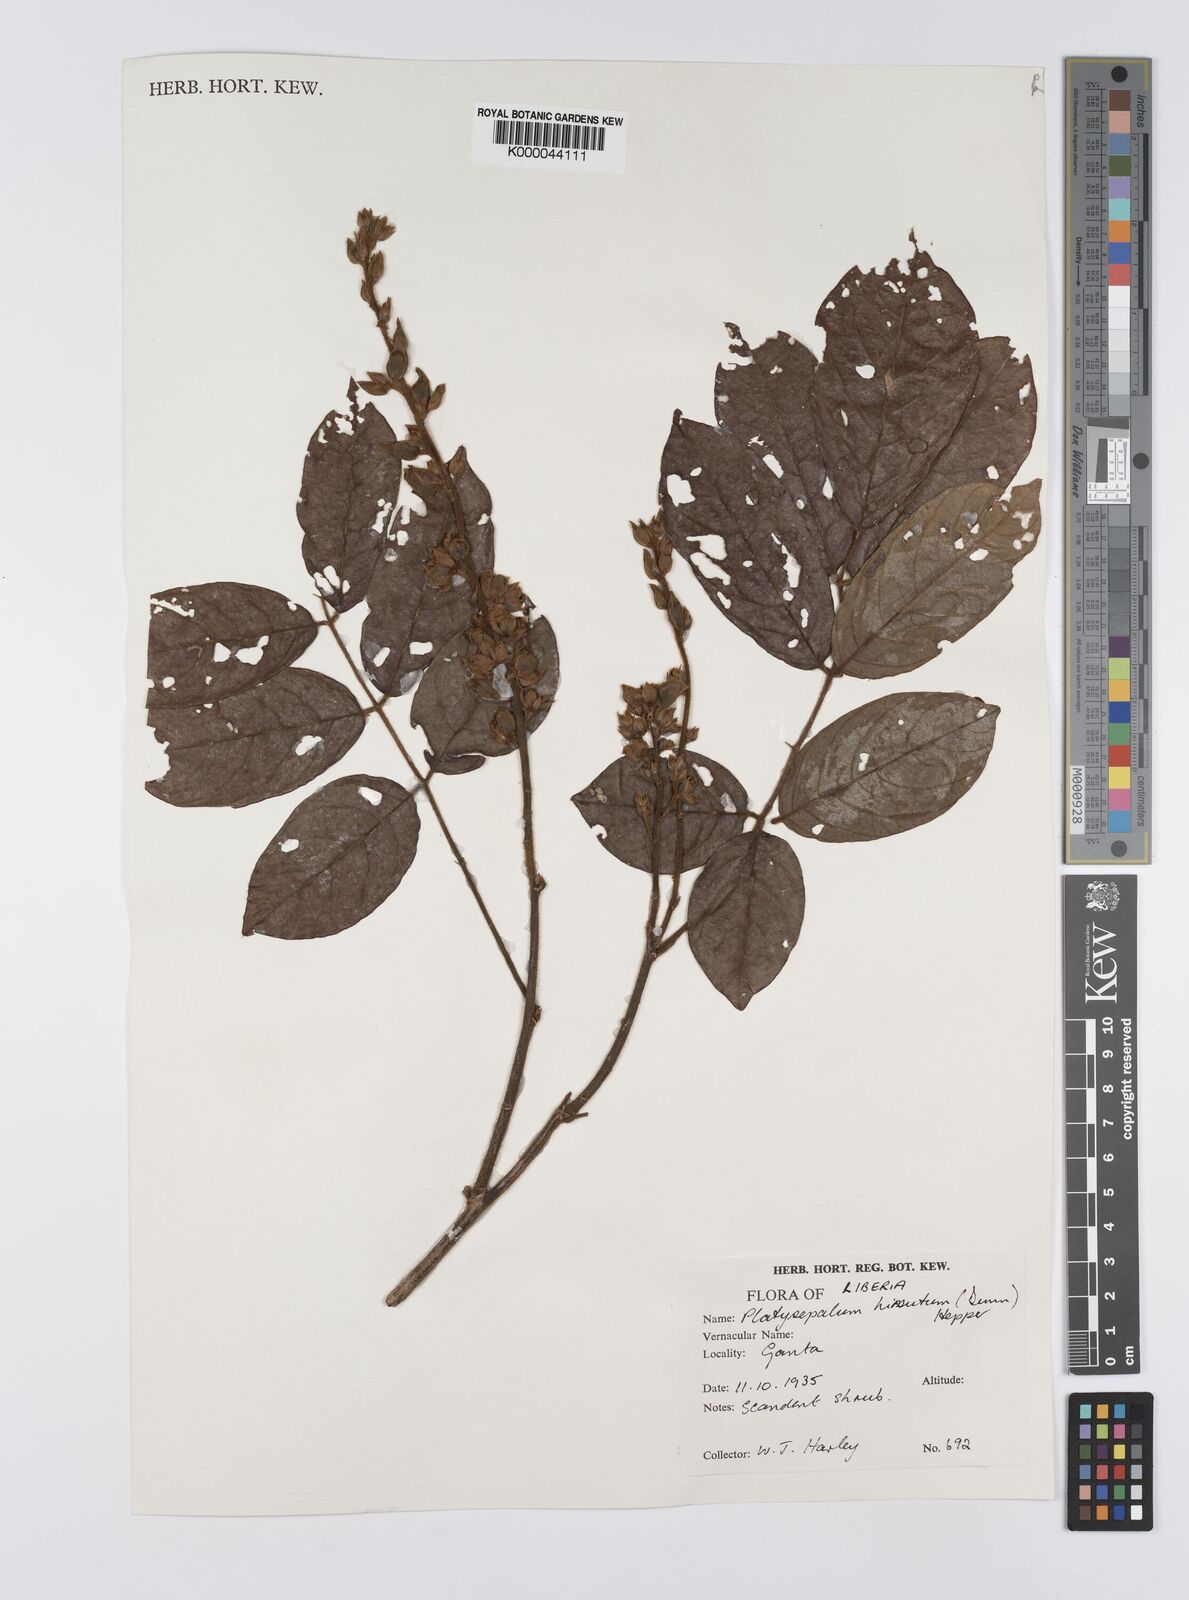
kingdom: Plantae
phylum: Tracheophyta
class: Magnoliopsida
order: Fabales
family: Fabaceae
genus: Platysepalum
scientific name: Platysepalum hirsutum
